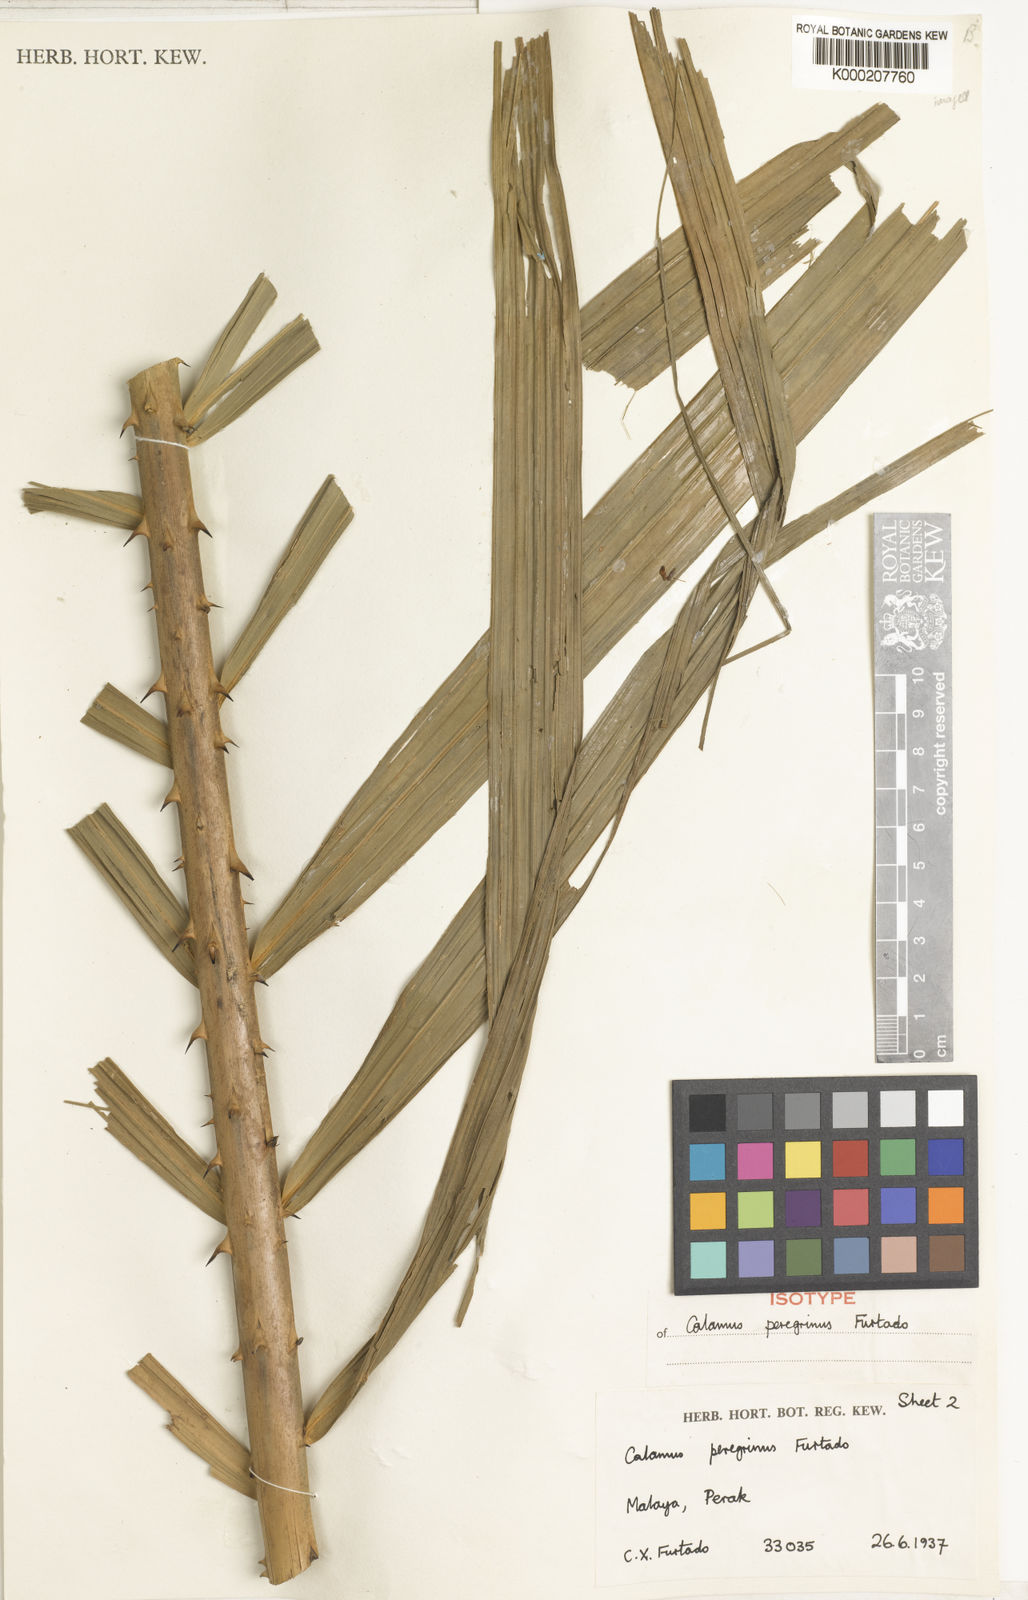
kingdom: Plantae
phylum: Tracheophyta
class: Liliopsida
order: Arecales
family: Arecaceae
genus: Calamus
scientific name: Calamus peregrinus
